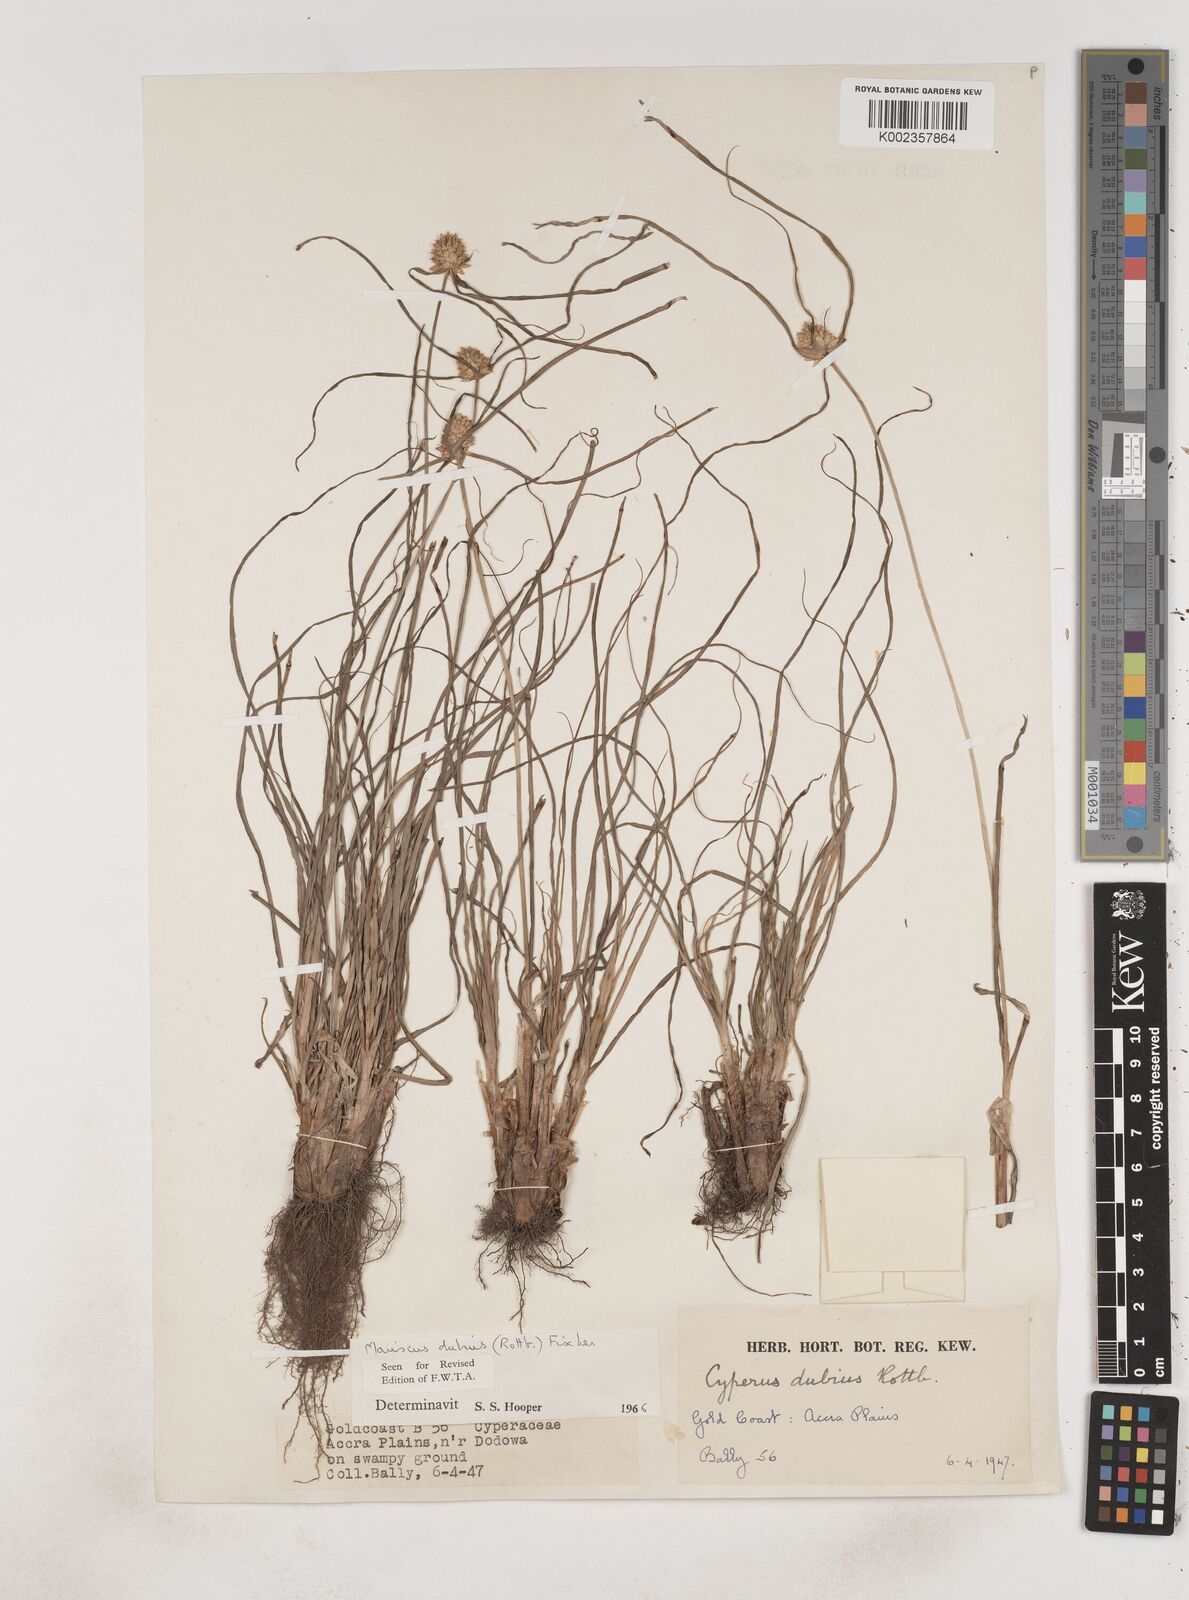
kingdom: Plantae
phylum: Tracheophyta
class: Liliopsida
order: Poales
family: Cyperaceae
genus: Cyperus
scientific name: Cyperus dubius
